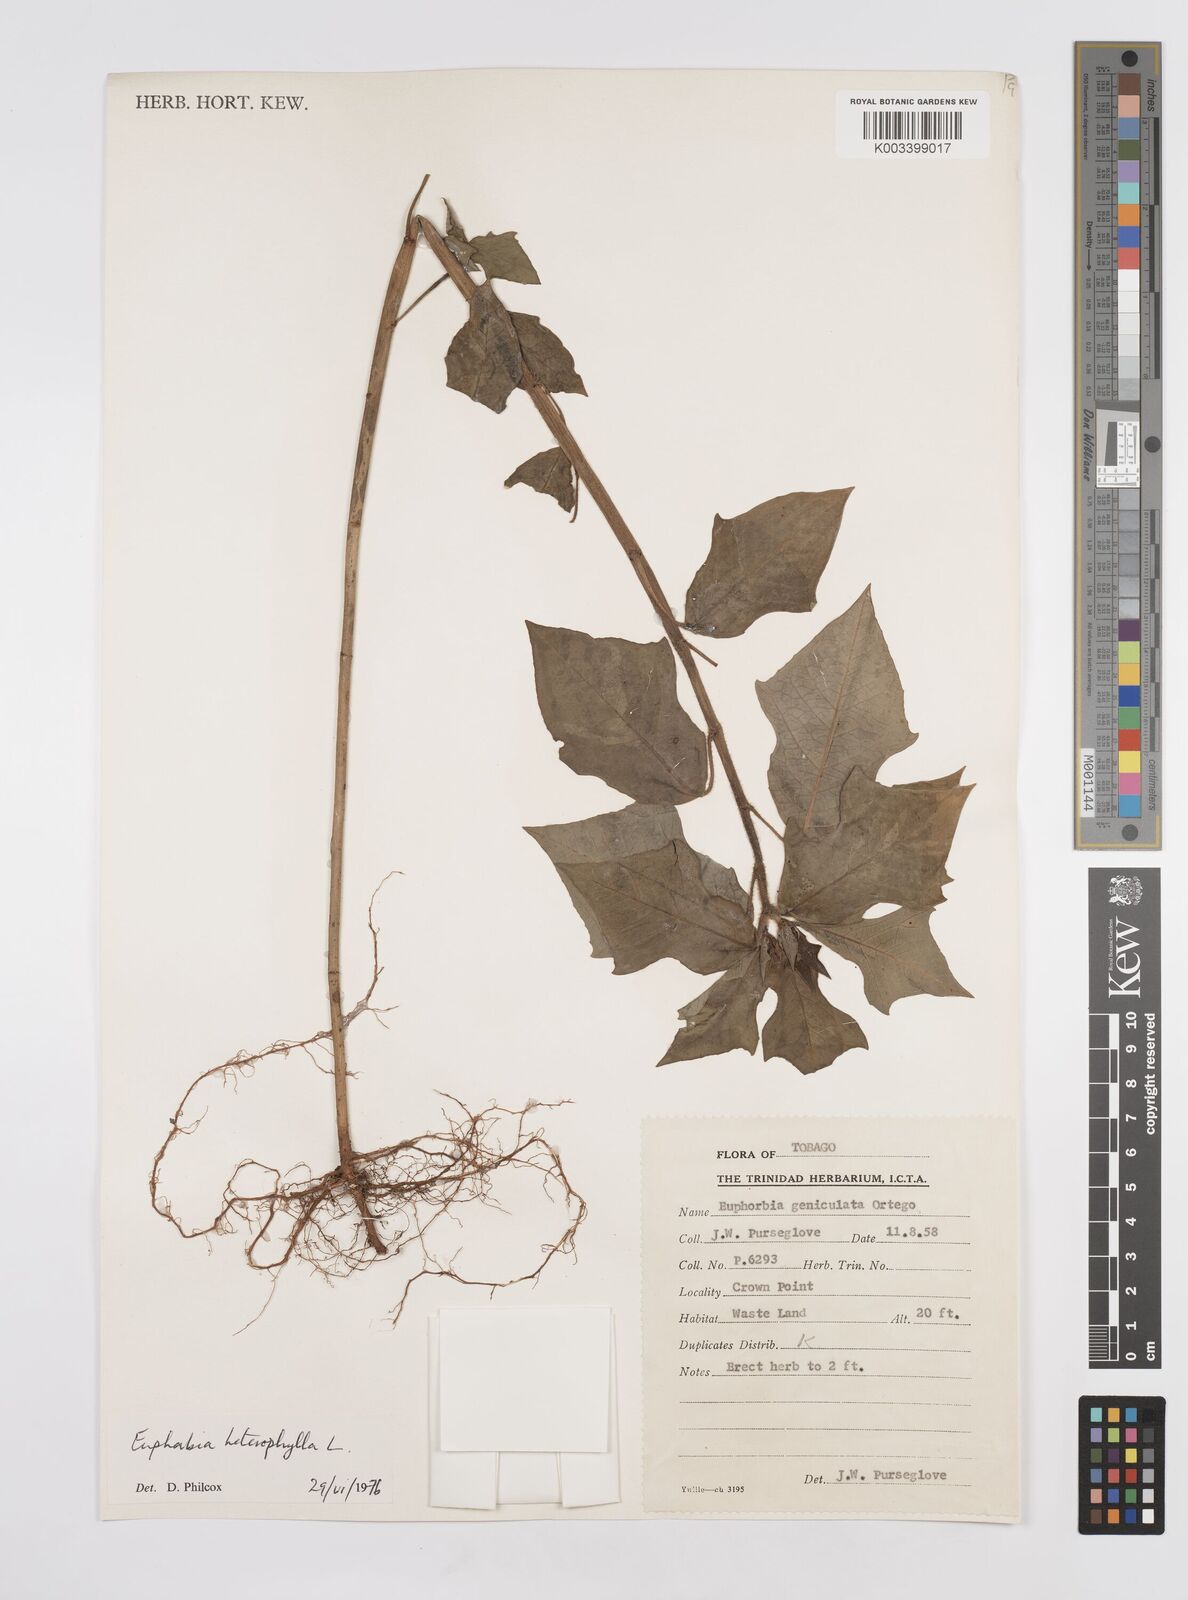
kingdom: Plantae
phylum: Tracheophyta
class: Magnoliopsida
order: Malpighiales
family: Euphorbiaceae
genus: Euphorbia
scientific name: Euphorbia heterophylla
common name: Mexican fireplant
